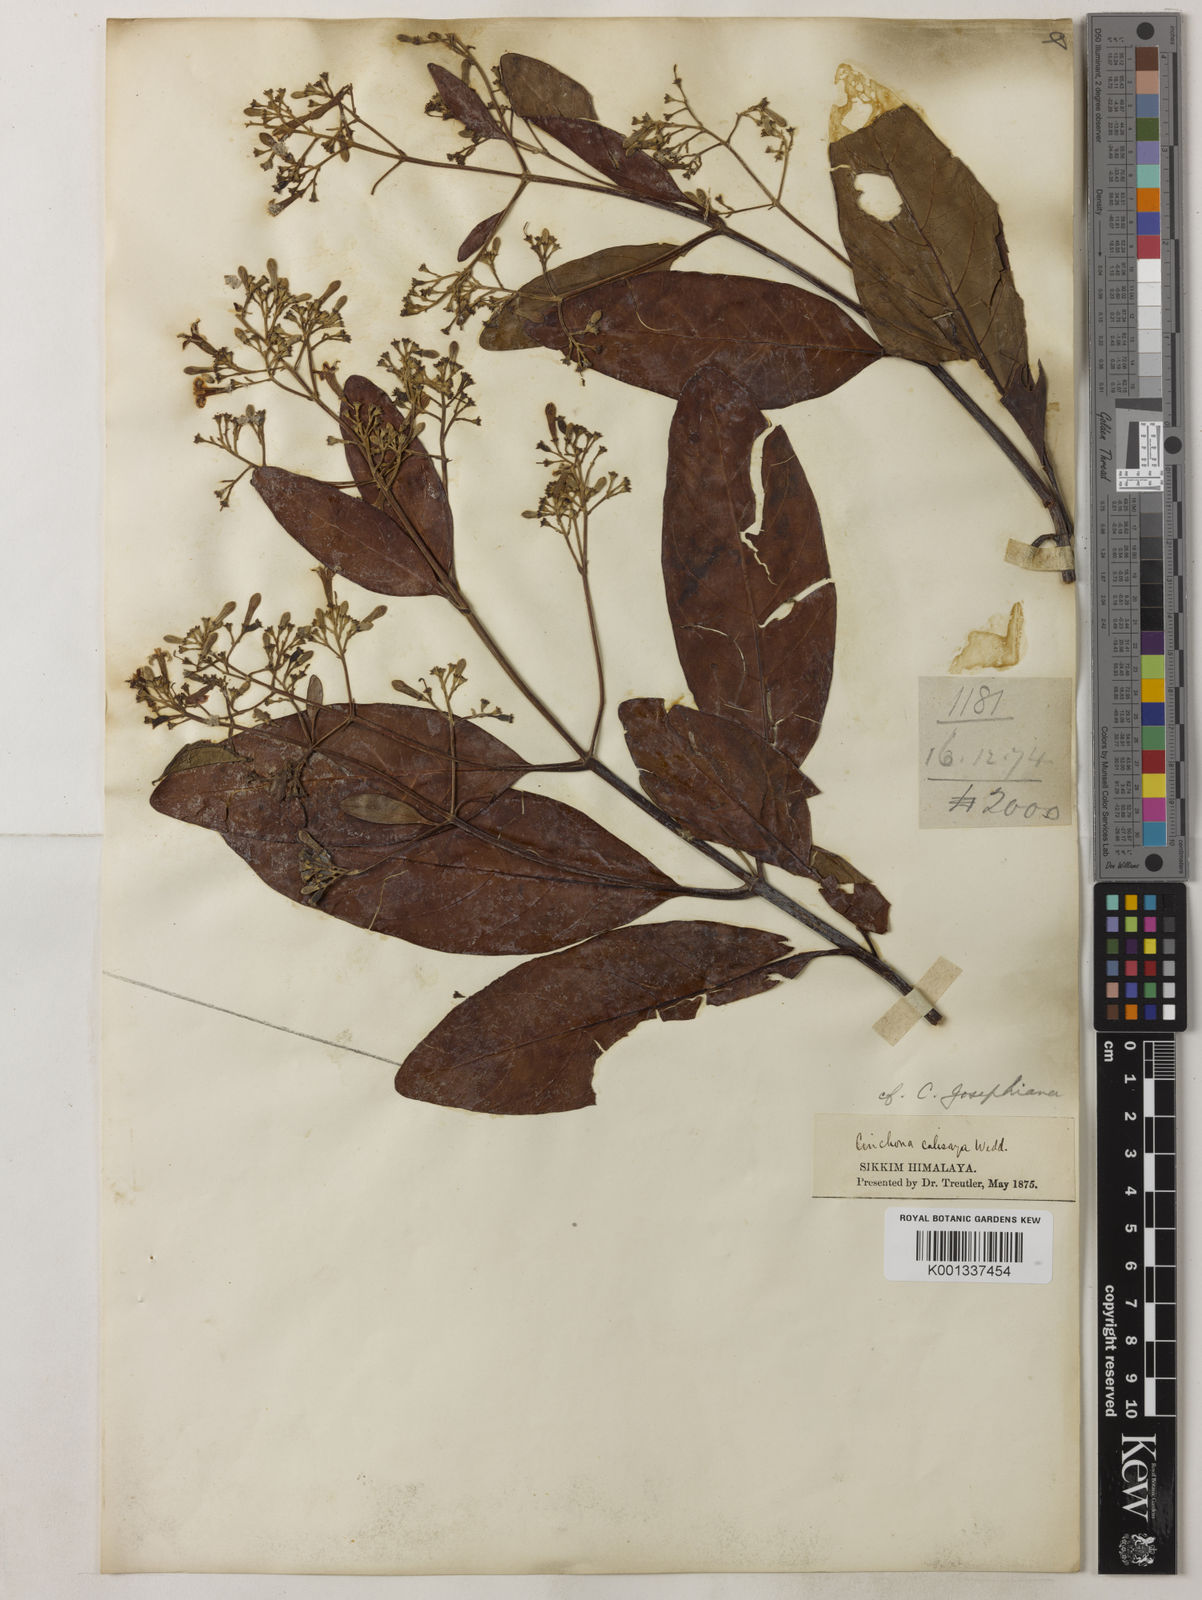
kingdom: Plantae
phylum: Tracheophyta
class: Magnoliopsida
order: Gentianales
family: Rubiaceae
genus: Cinchona
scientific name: Cinchona calisaya
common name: Ledgerbark
